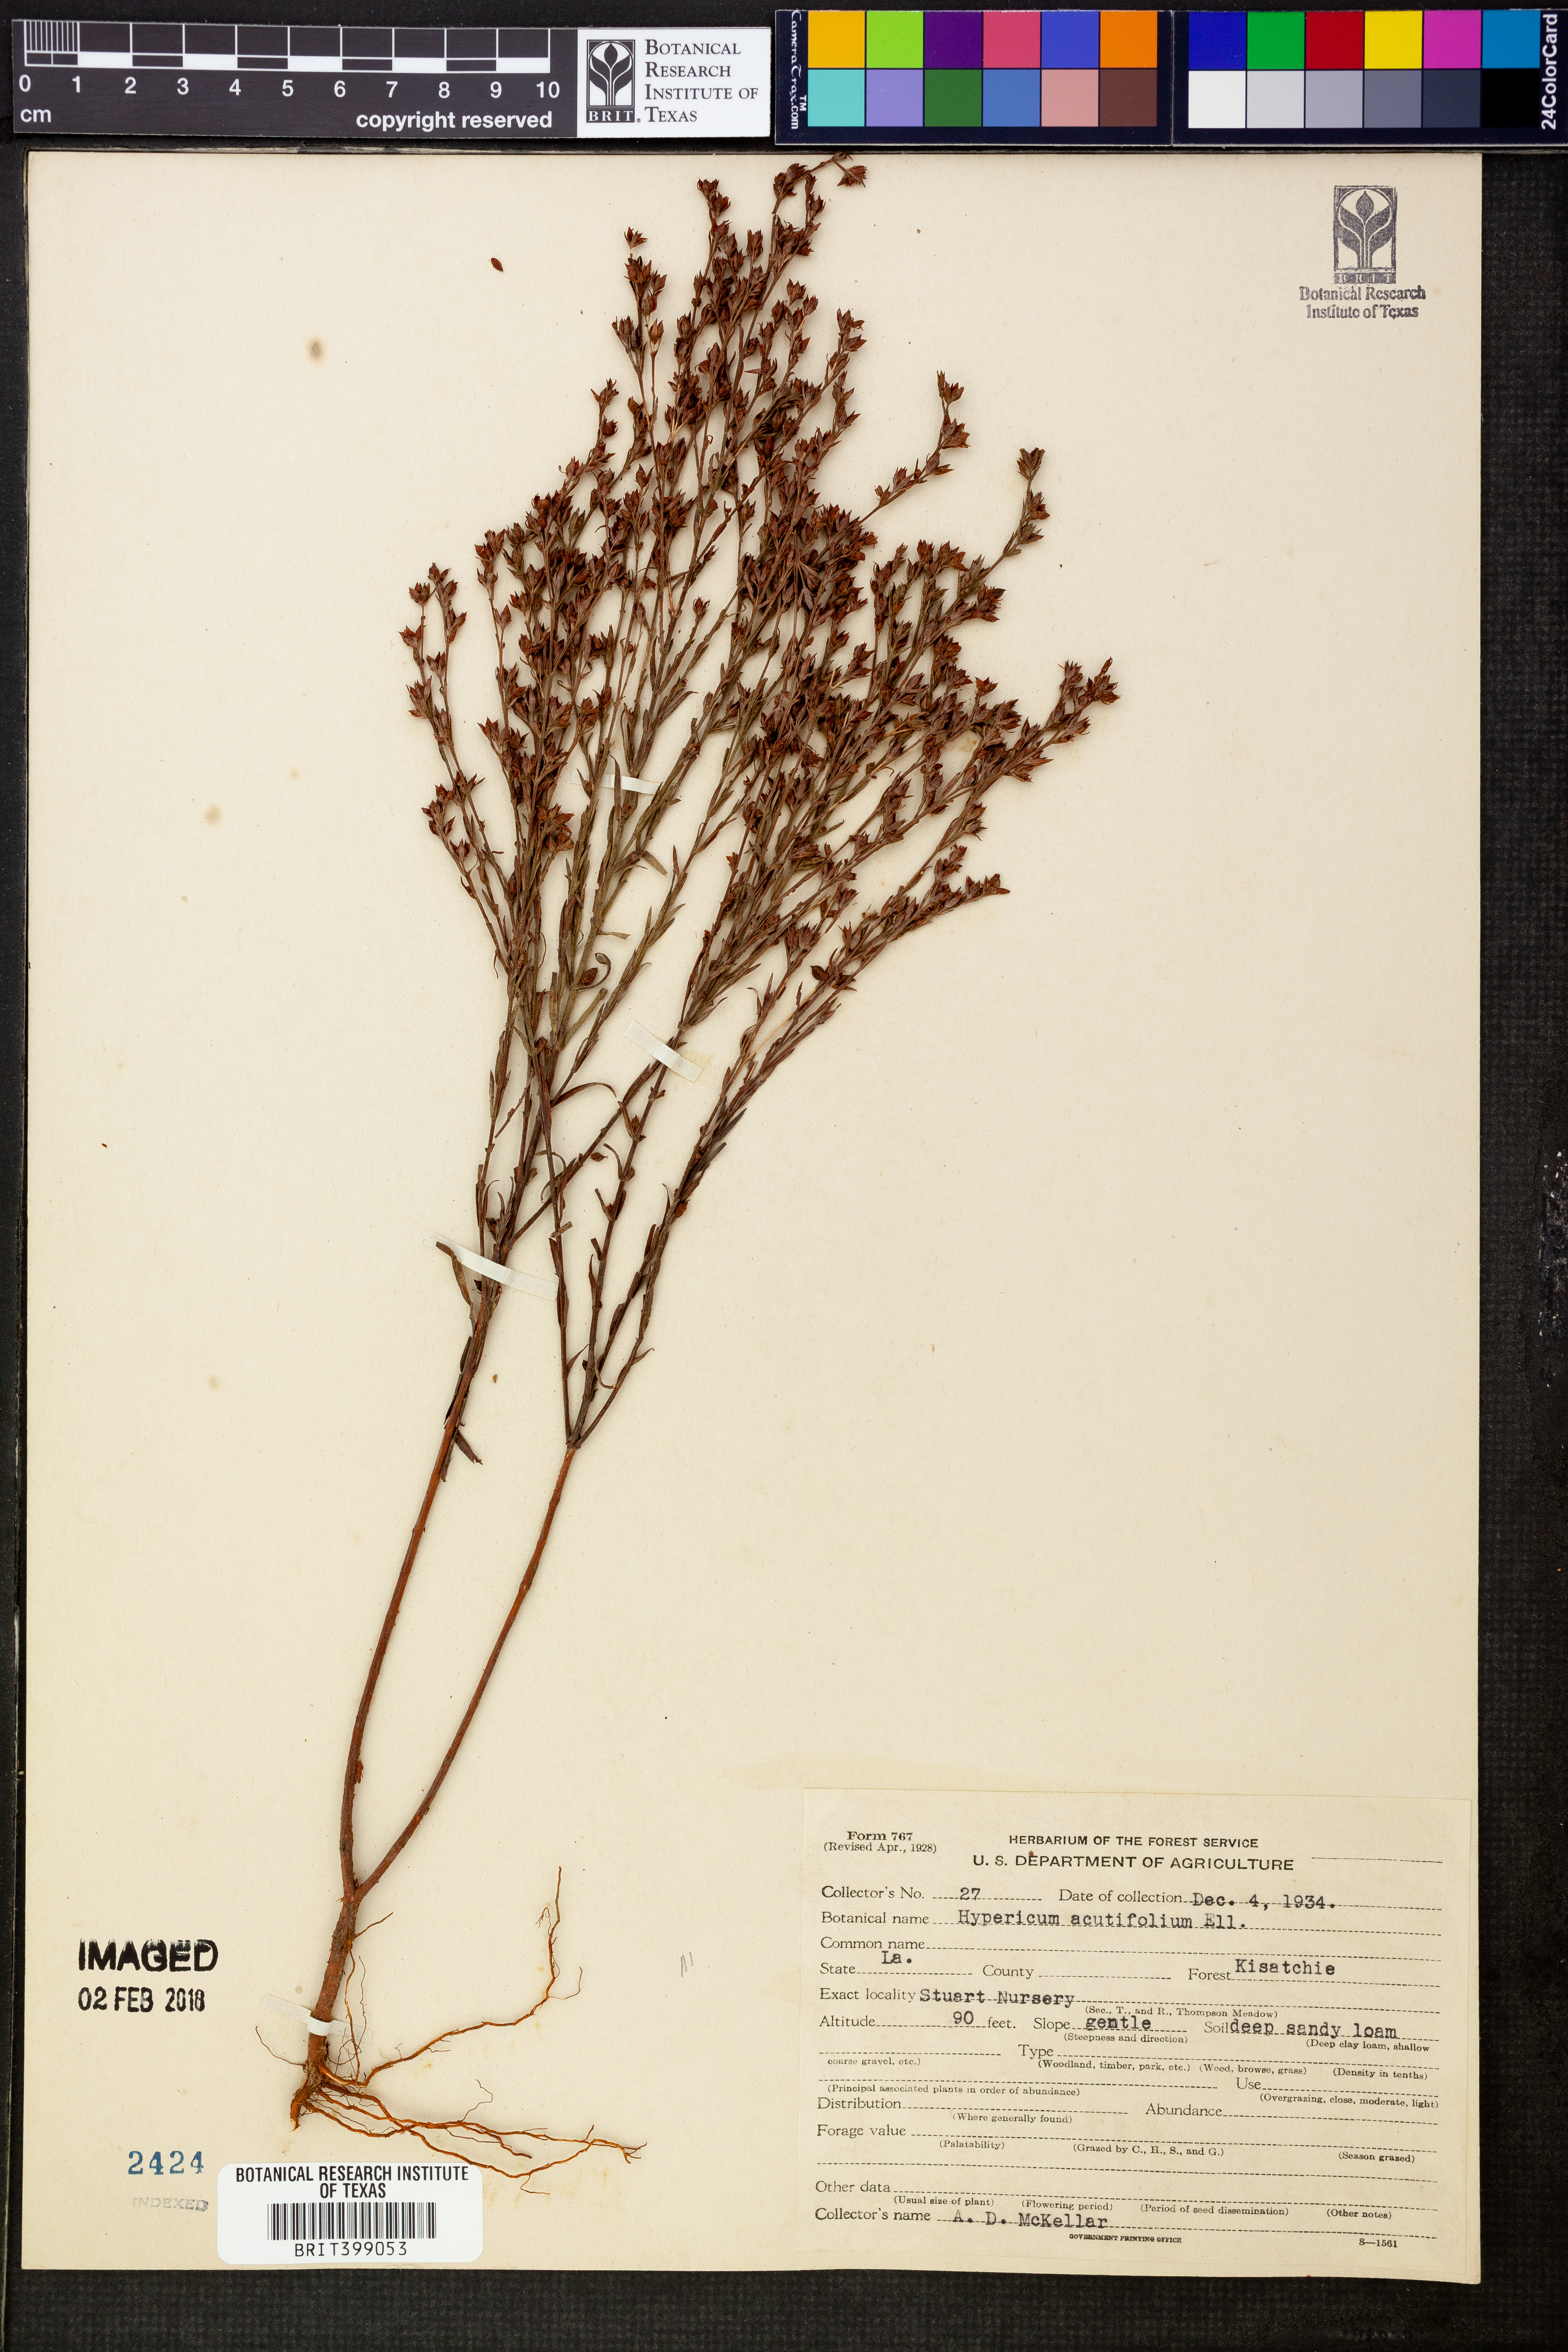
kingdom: Plantae
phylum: Tracheophyta
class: Magnoliopsida
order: Malpighiales
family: Hypericaceae
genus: Hypericum
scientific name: Hypericum erythraeae
